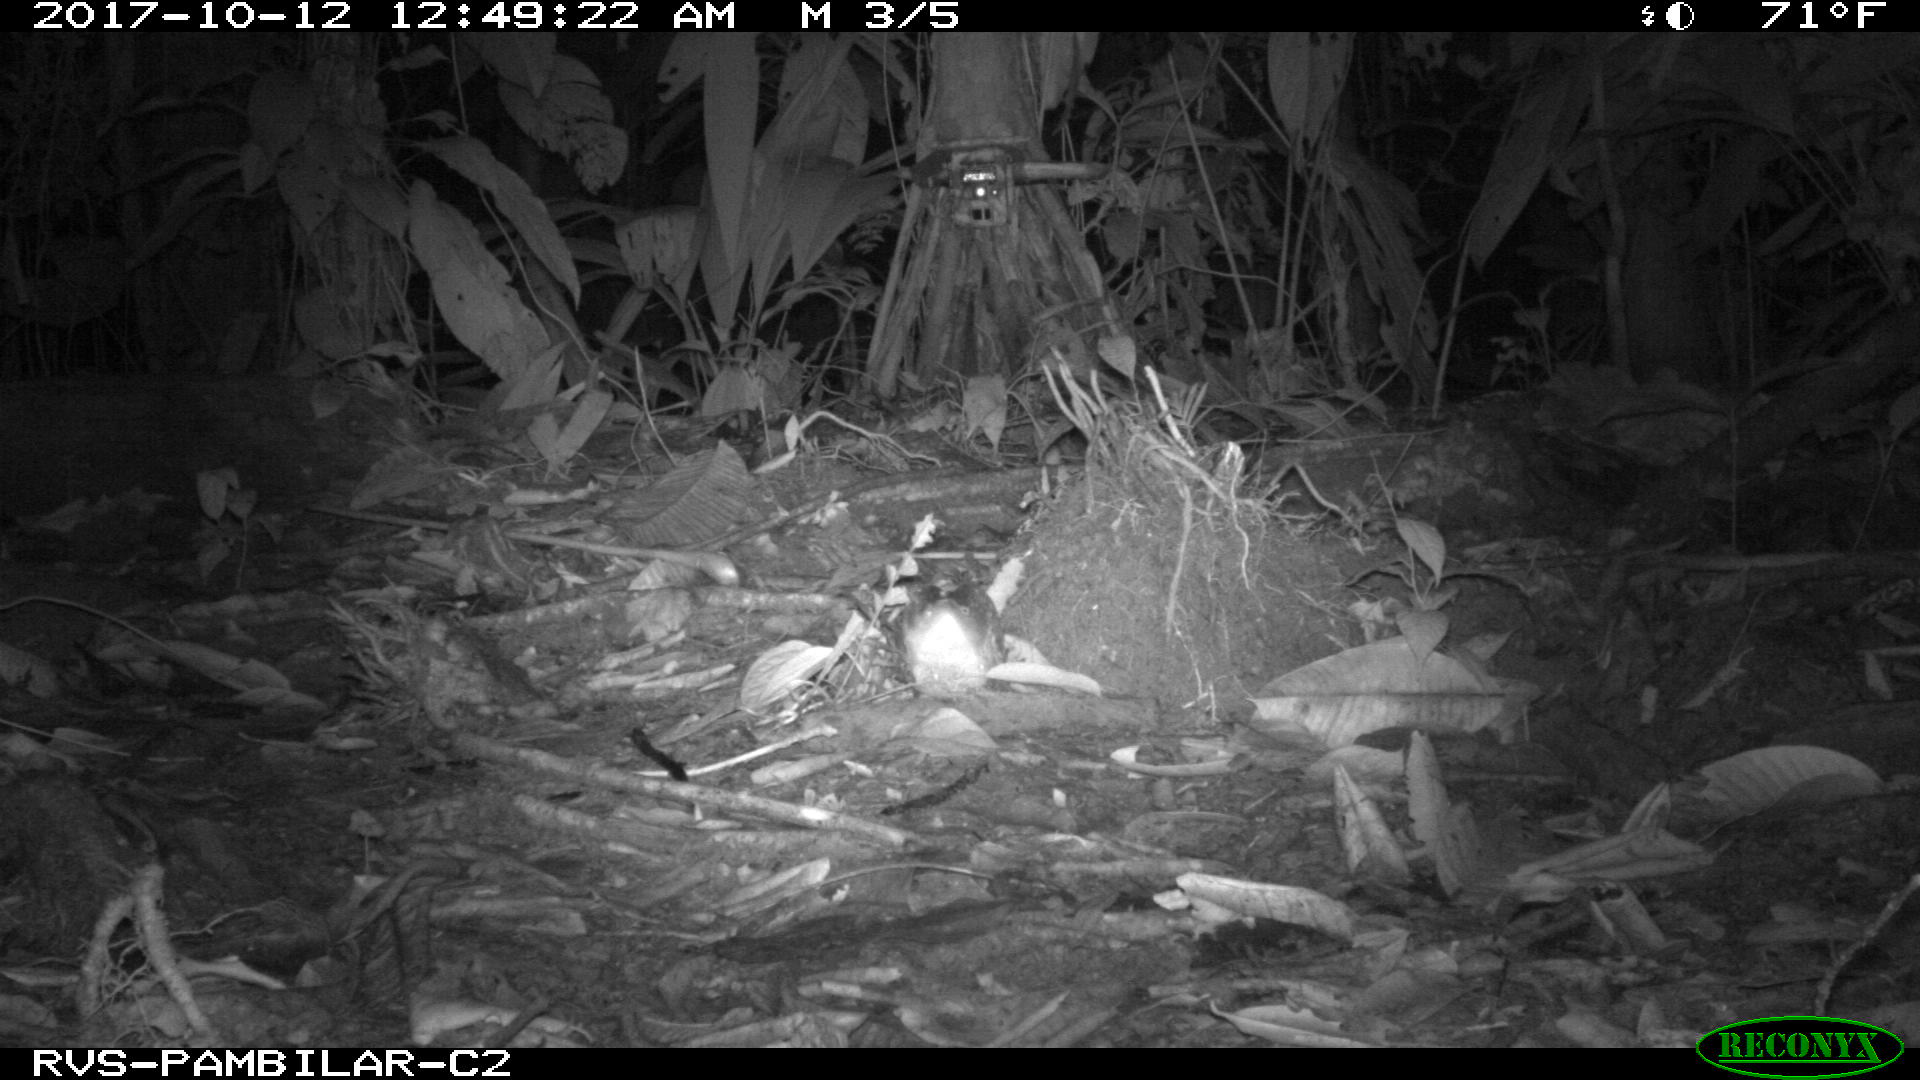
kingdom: Animalia
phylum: Chordata
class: Mammalia
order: Cingulata
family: Dasypodidae
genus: Dasypus
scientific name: Dasypus novemcinctus
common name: Nine-banded armadillo
